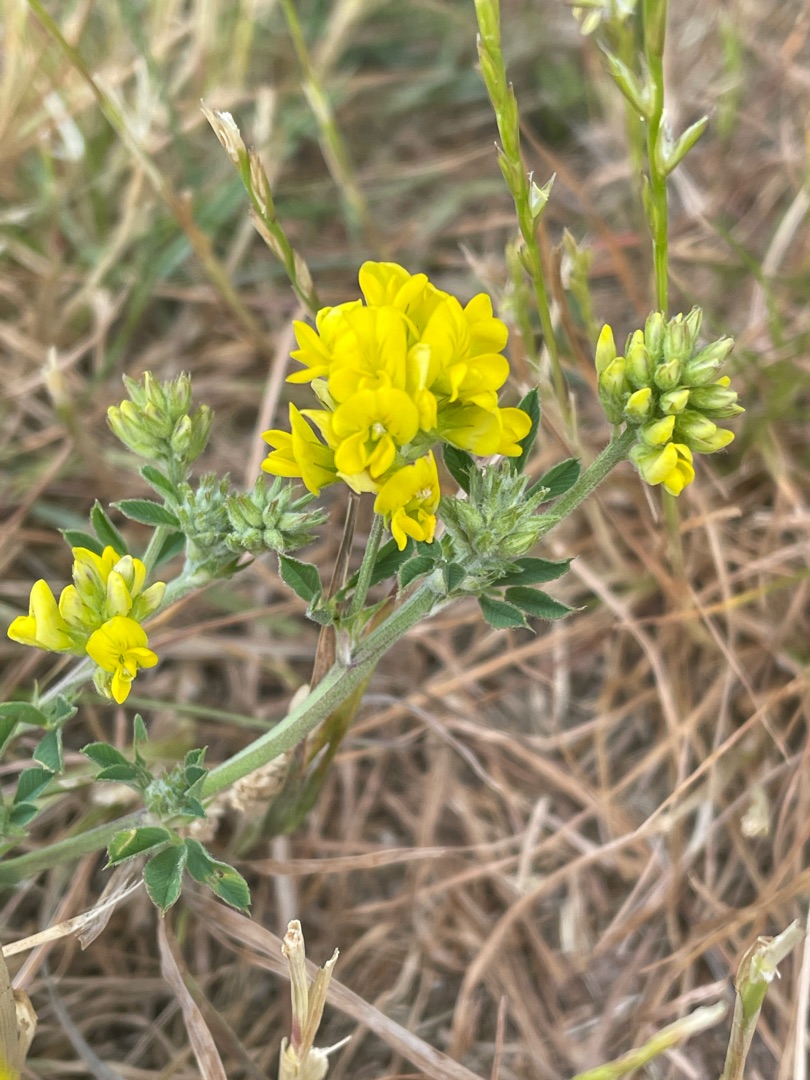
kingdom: Plantae
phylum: Tracheophyta
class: Magnoliopsida
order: Fabales
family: Fabaceae
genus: Lathyrus
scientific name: Lathyrus pratensis
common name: Gul fladbælg
